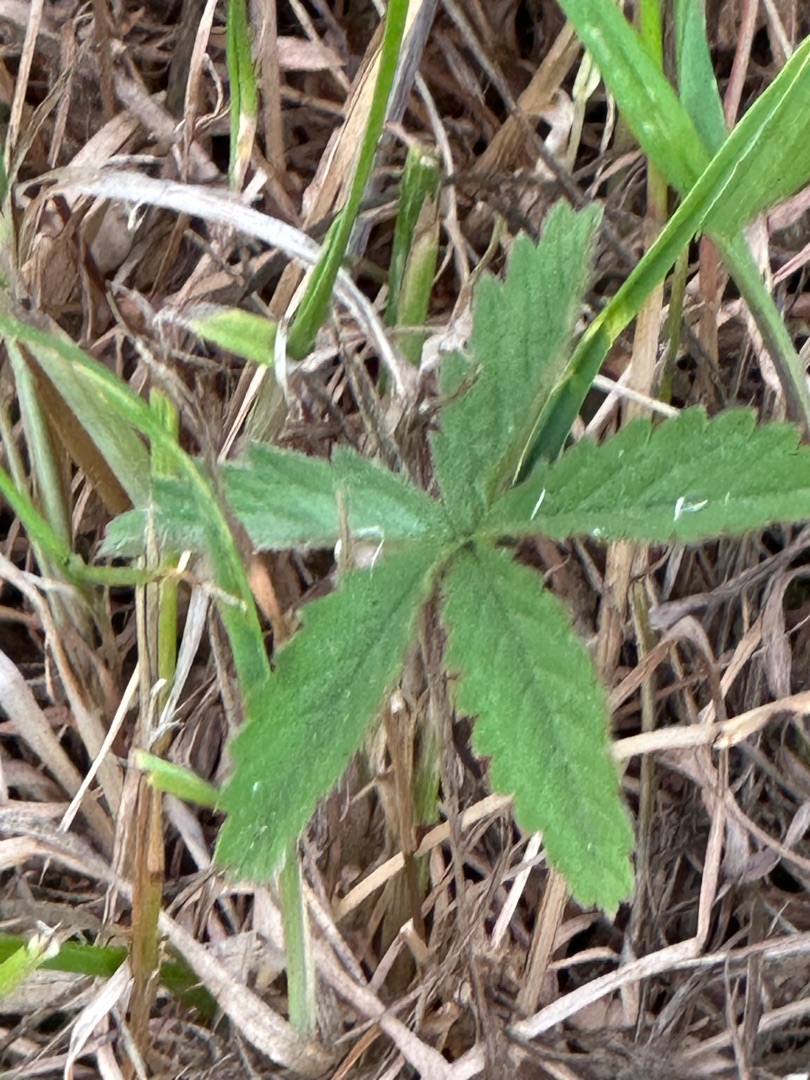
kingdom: Plantae
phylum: Tracheophyta
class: Magnoliopsida
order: Rosales
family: Rosaceae
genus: Potentilla
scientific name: Potentilla reptans
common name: Krybende potentil
